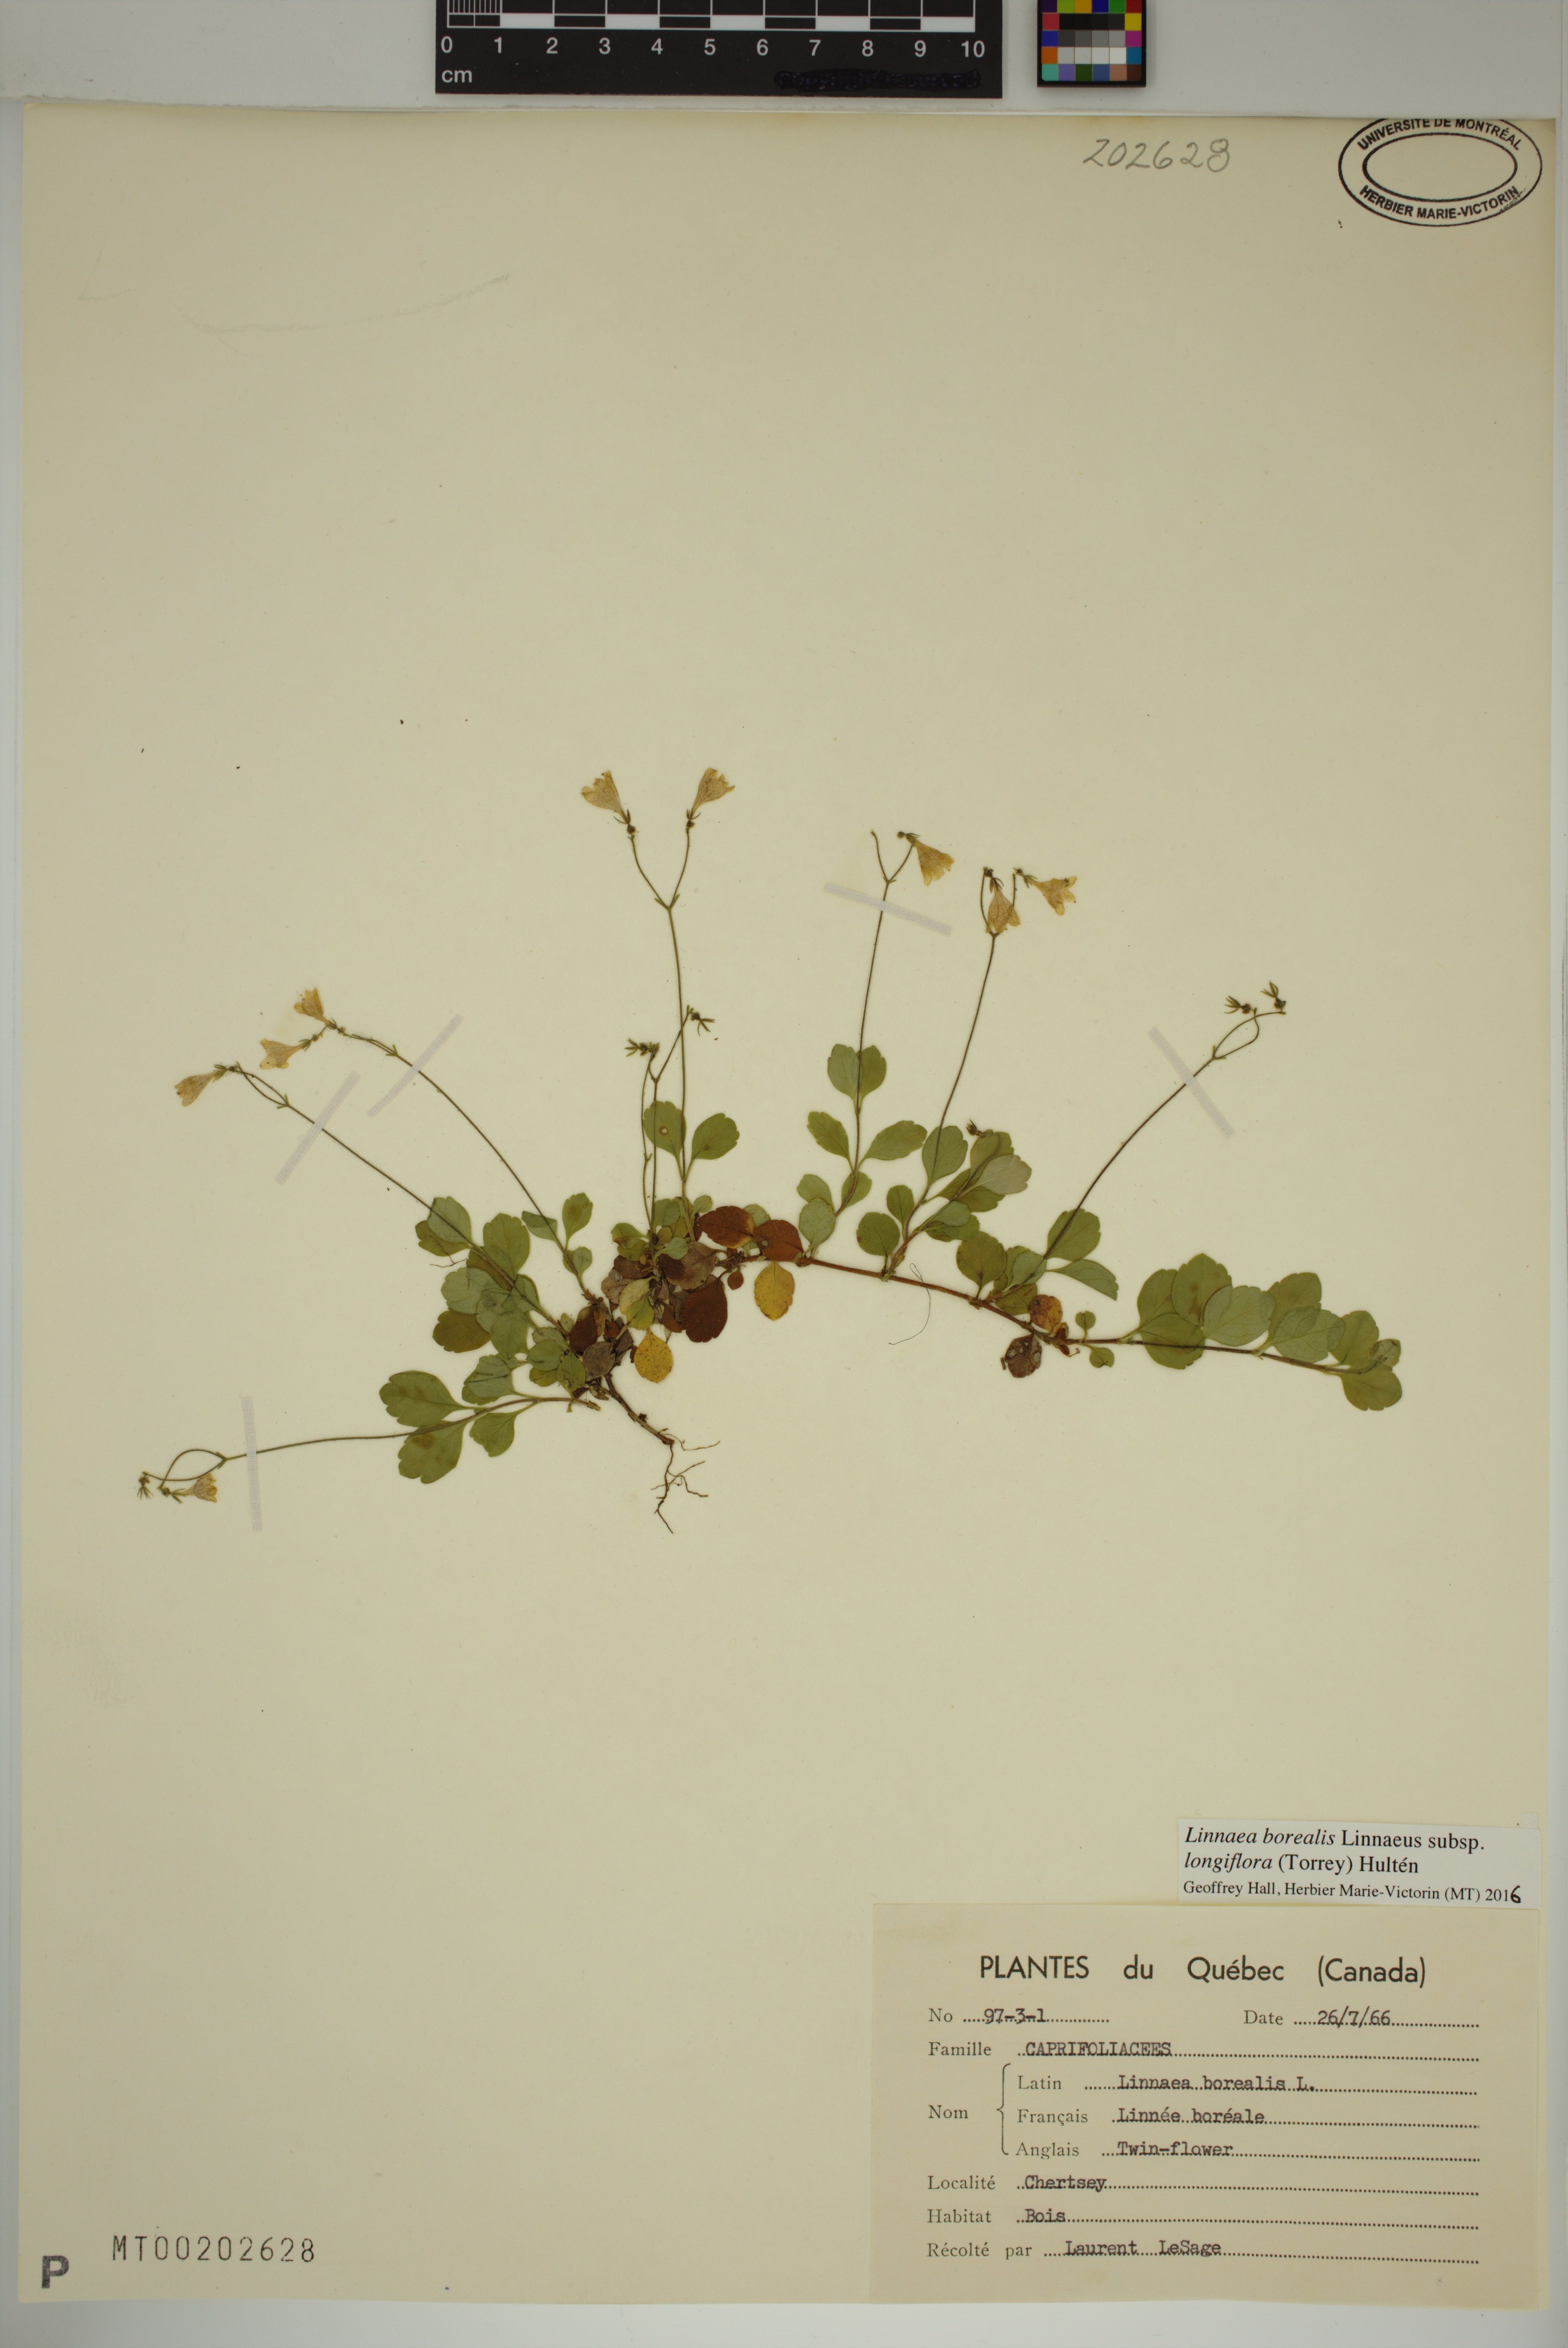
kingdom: Plantae
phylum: Tracheophyta
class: Magnoliopsida
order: Dipsacales
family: Caprifoliaceae
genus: Linnaea
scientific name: Linnaea borealis
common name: Twinflower
